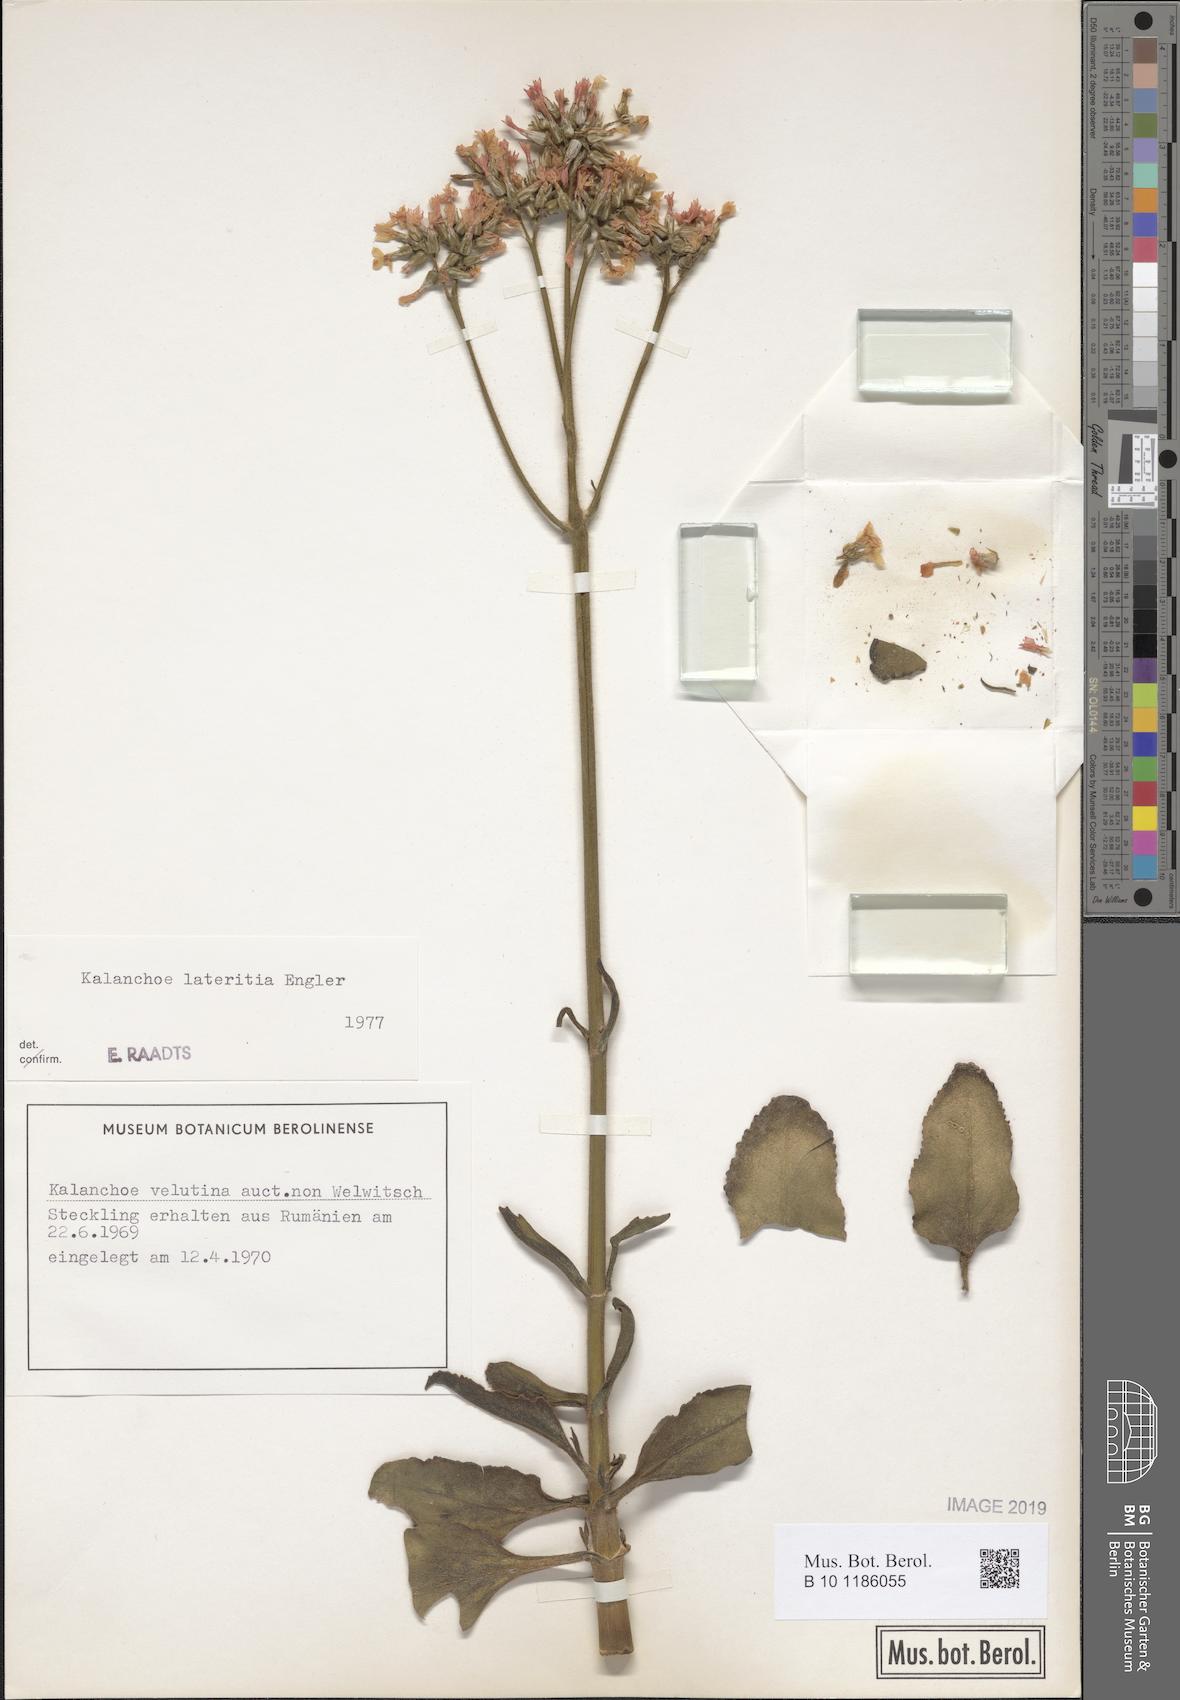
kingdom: Plantae
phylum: Tracheophyta
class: Magnoliopsida
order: Saxifragales
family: Crassulaceae
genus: Kalanchoe
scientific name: Kalanchoe lateritia
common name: Kalanchoe
